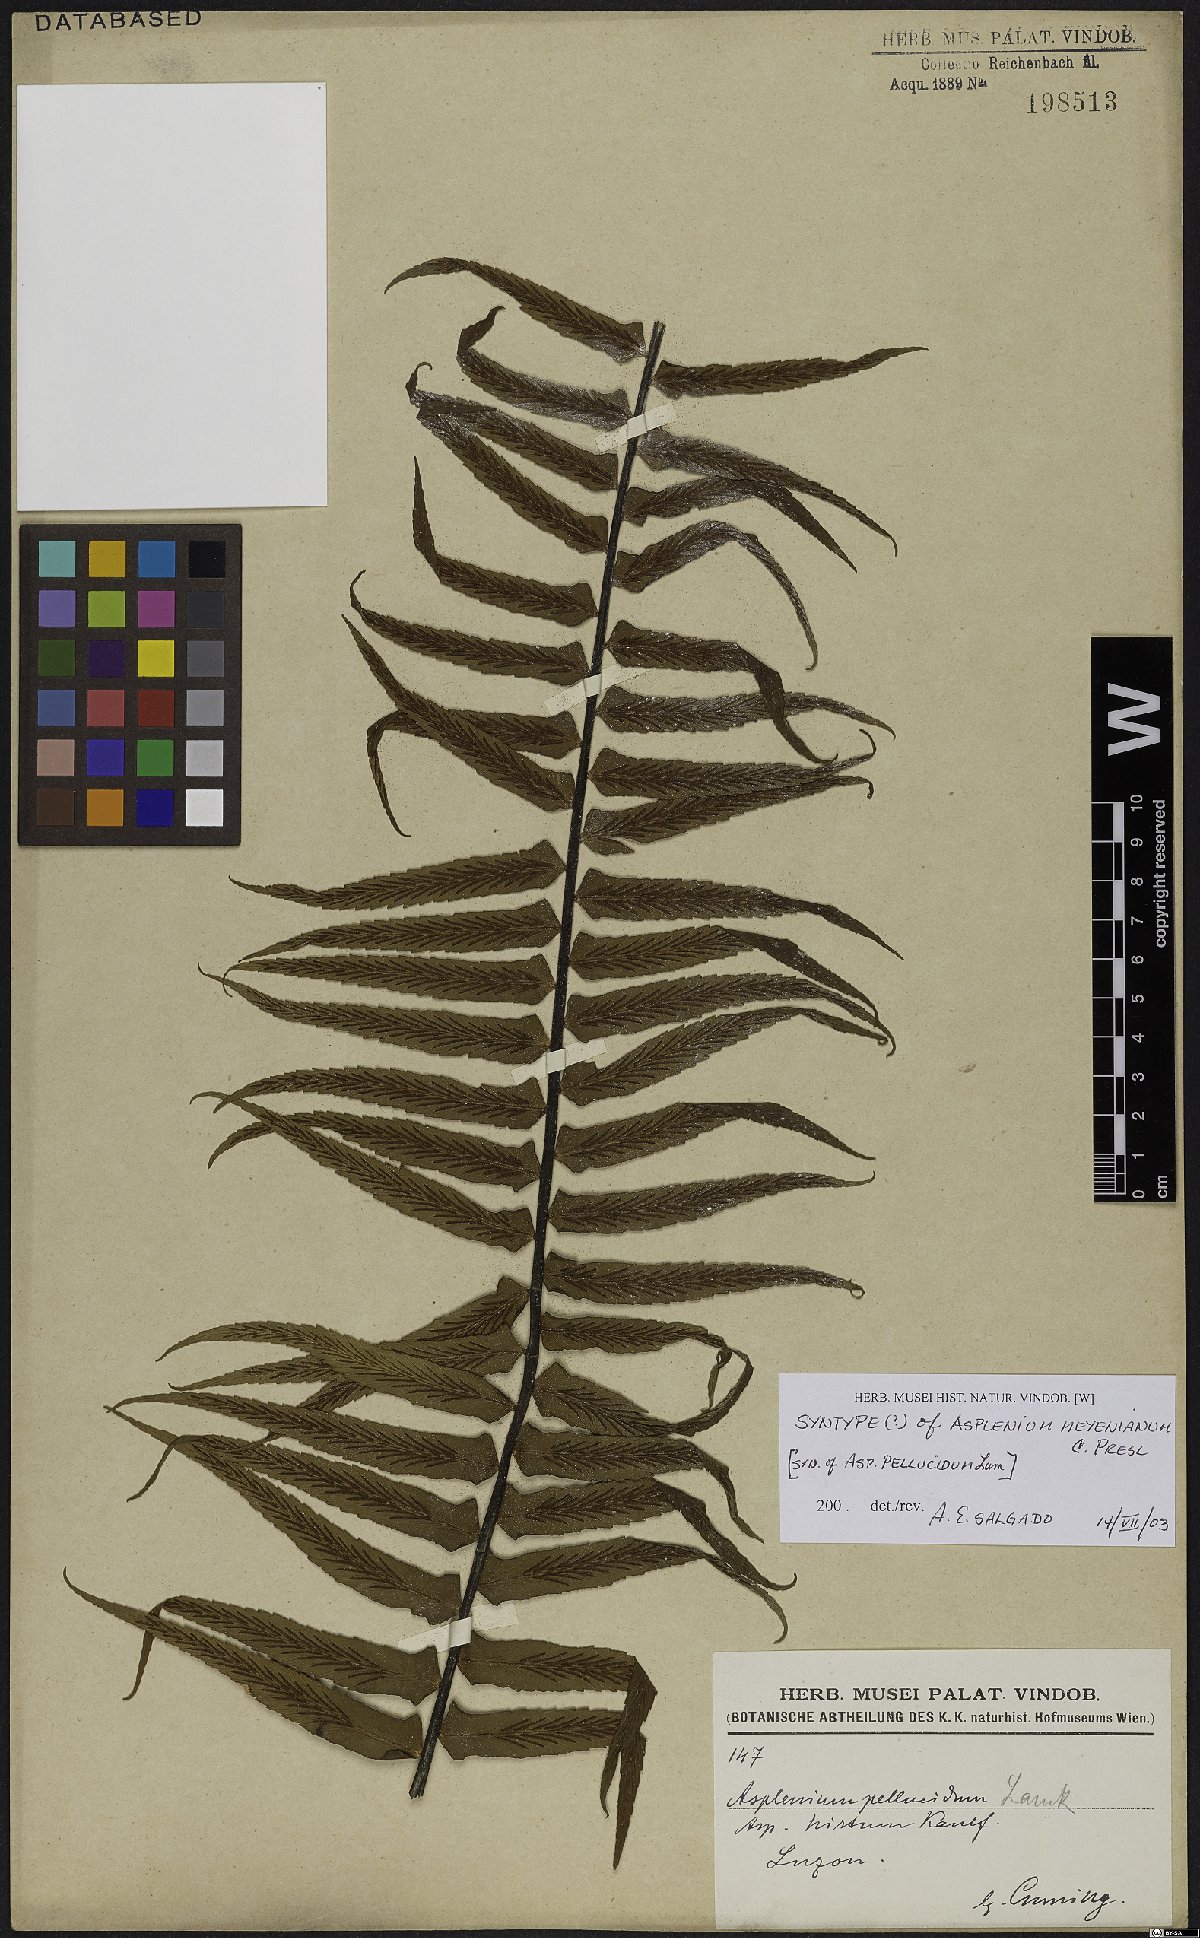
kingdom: Plantae
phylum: Tracheophyta
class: Polypodiopsida
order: Polypodiales
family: Aspleniaceae
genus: Asplenium
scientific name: Asplenium pellucidum
